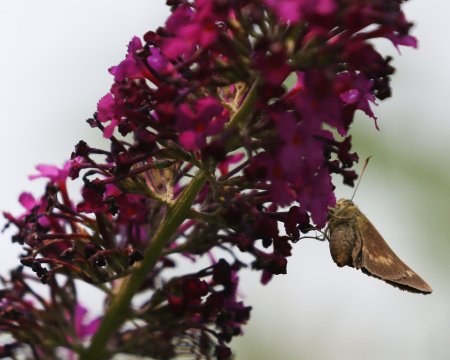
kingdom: Animalia
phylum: Arthropoda
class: Insecta
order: Lepidoptera
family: Hesperiidae
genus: Polites
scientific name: Polites egeremet
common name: Northern Broken-Dash
